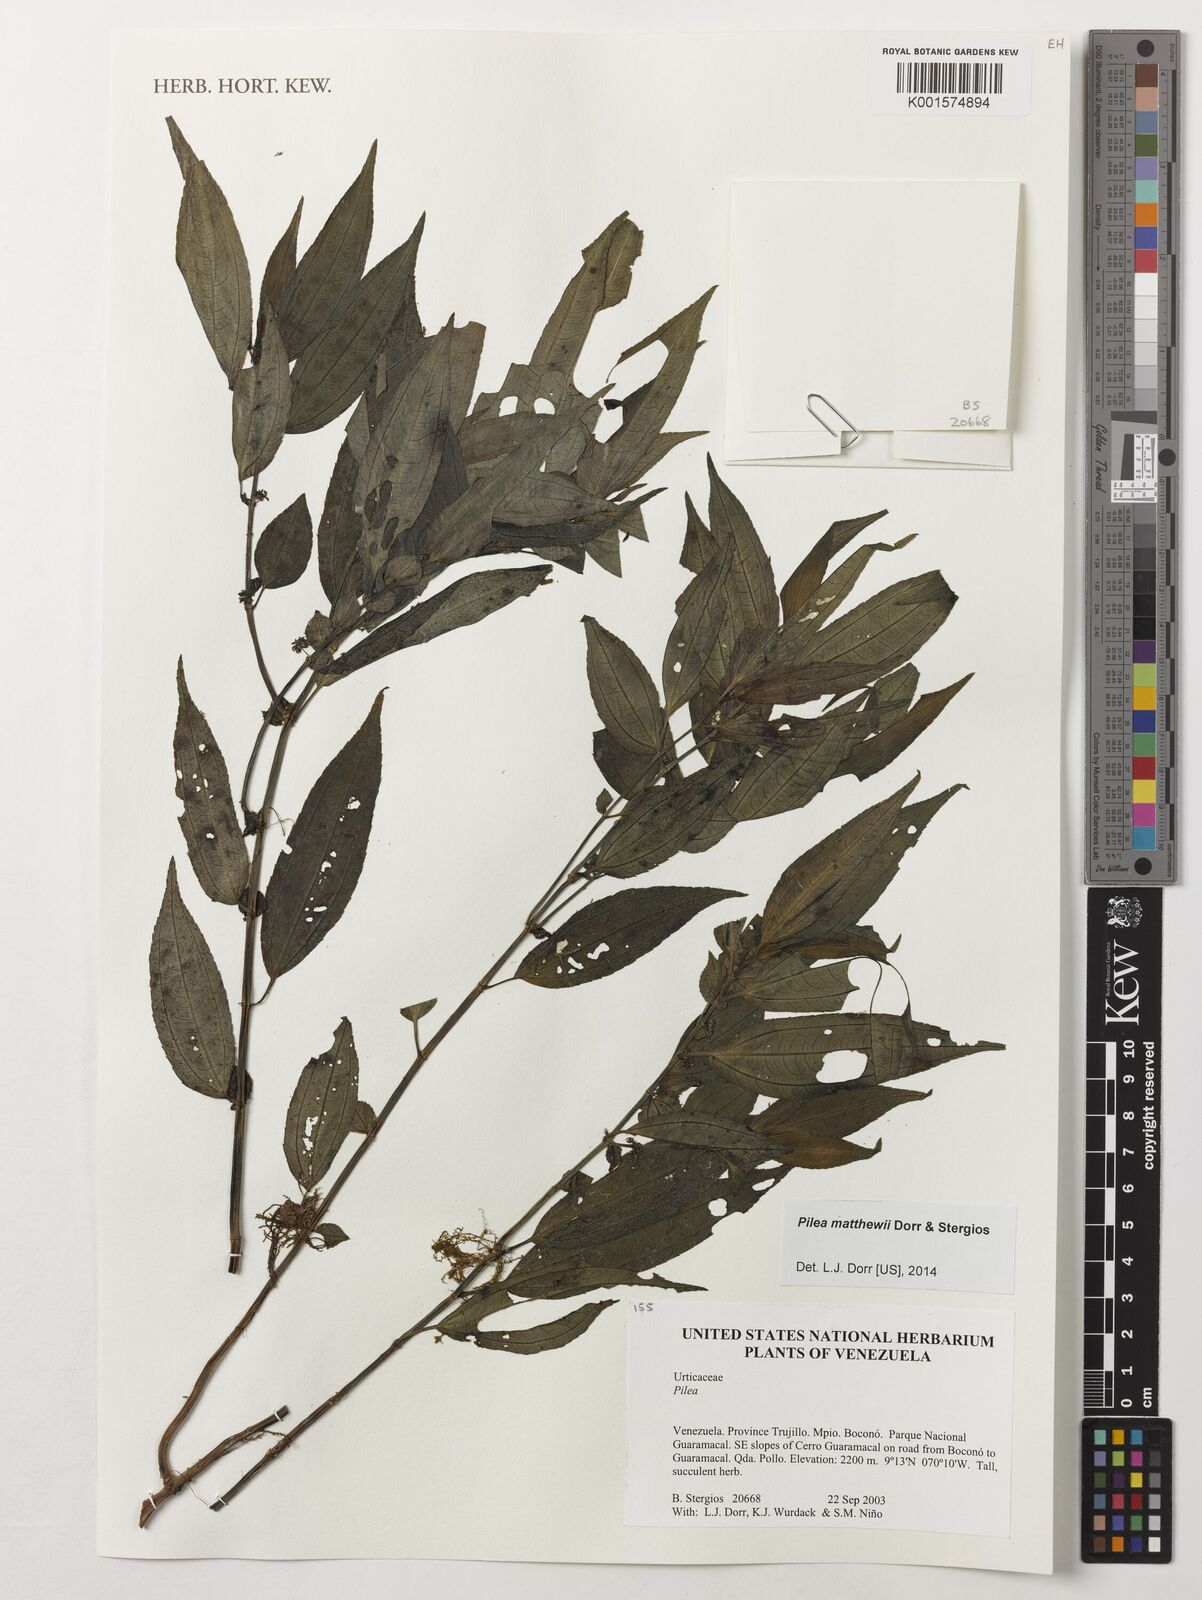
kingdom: Plantae
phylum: Tracheophyta
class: Magnoliopsida
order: Rosales
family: Urticaceae
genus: Pilea
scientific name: Pilea matthewii
